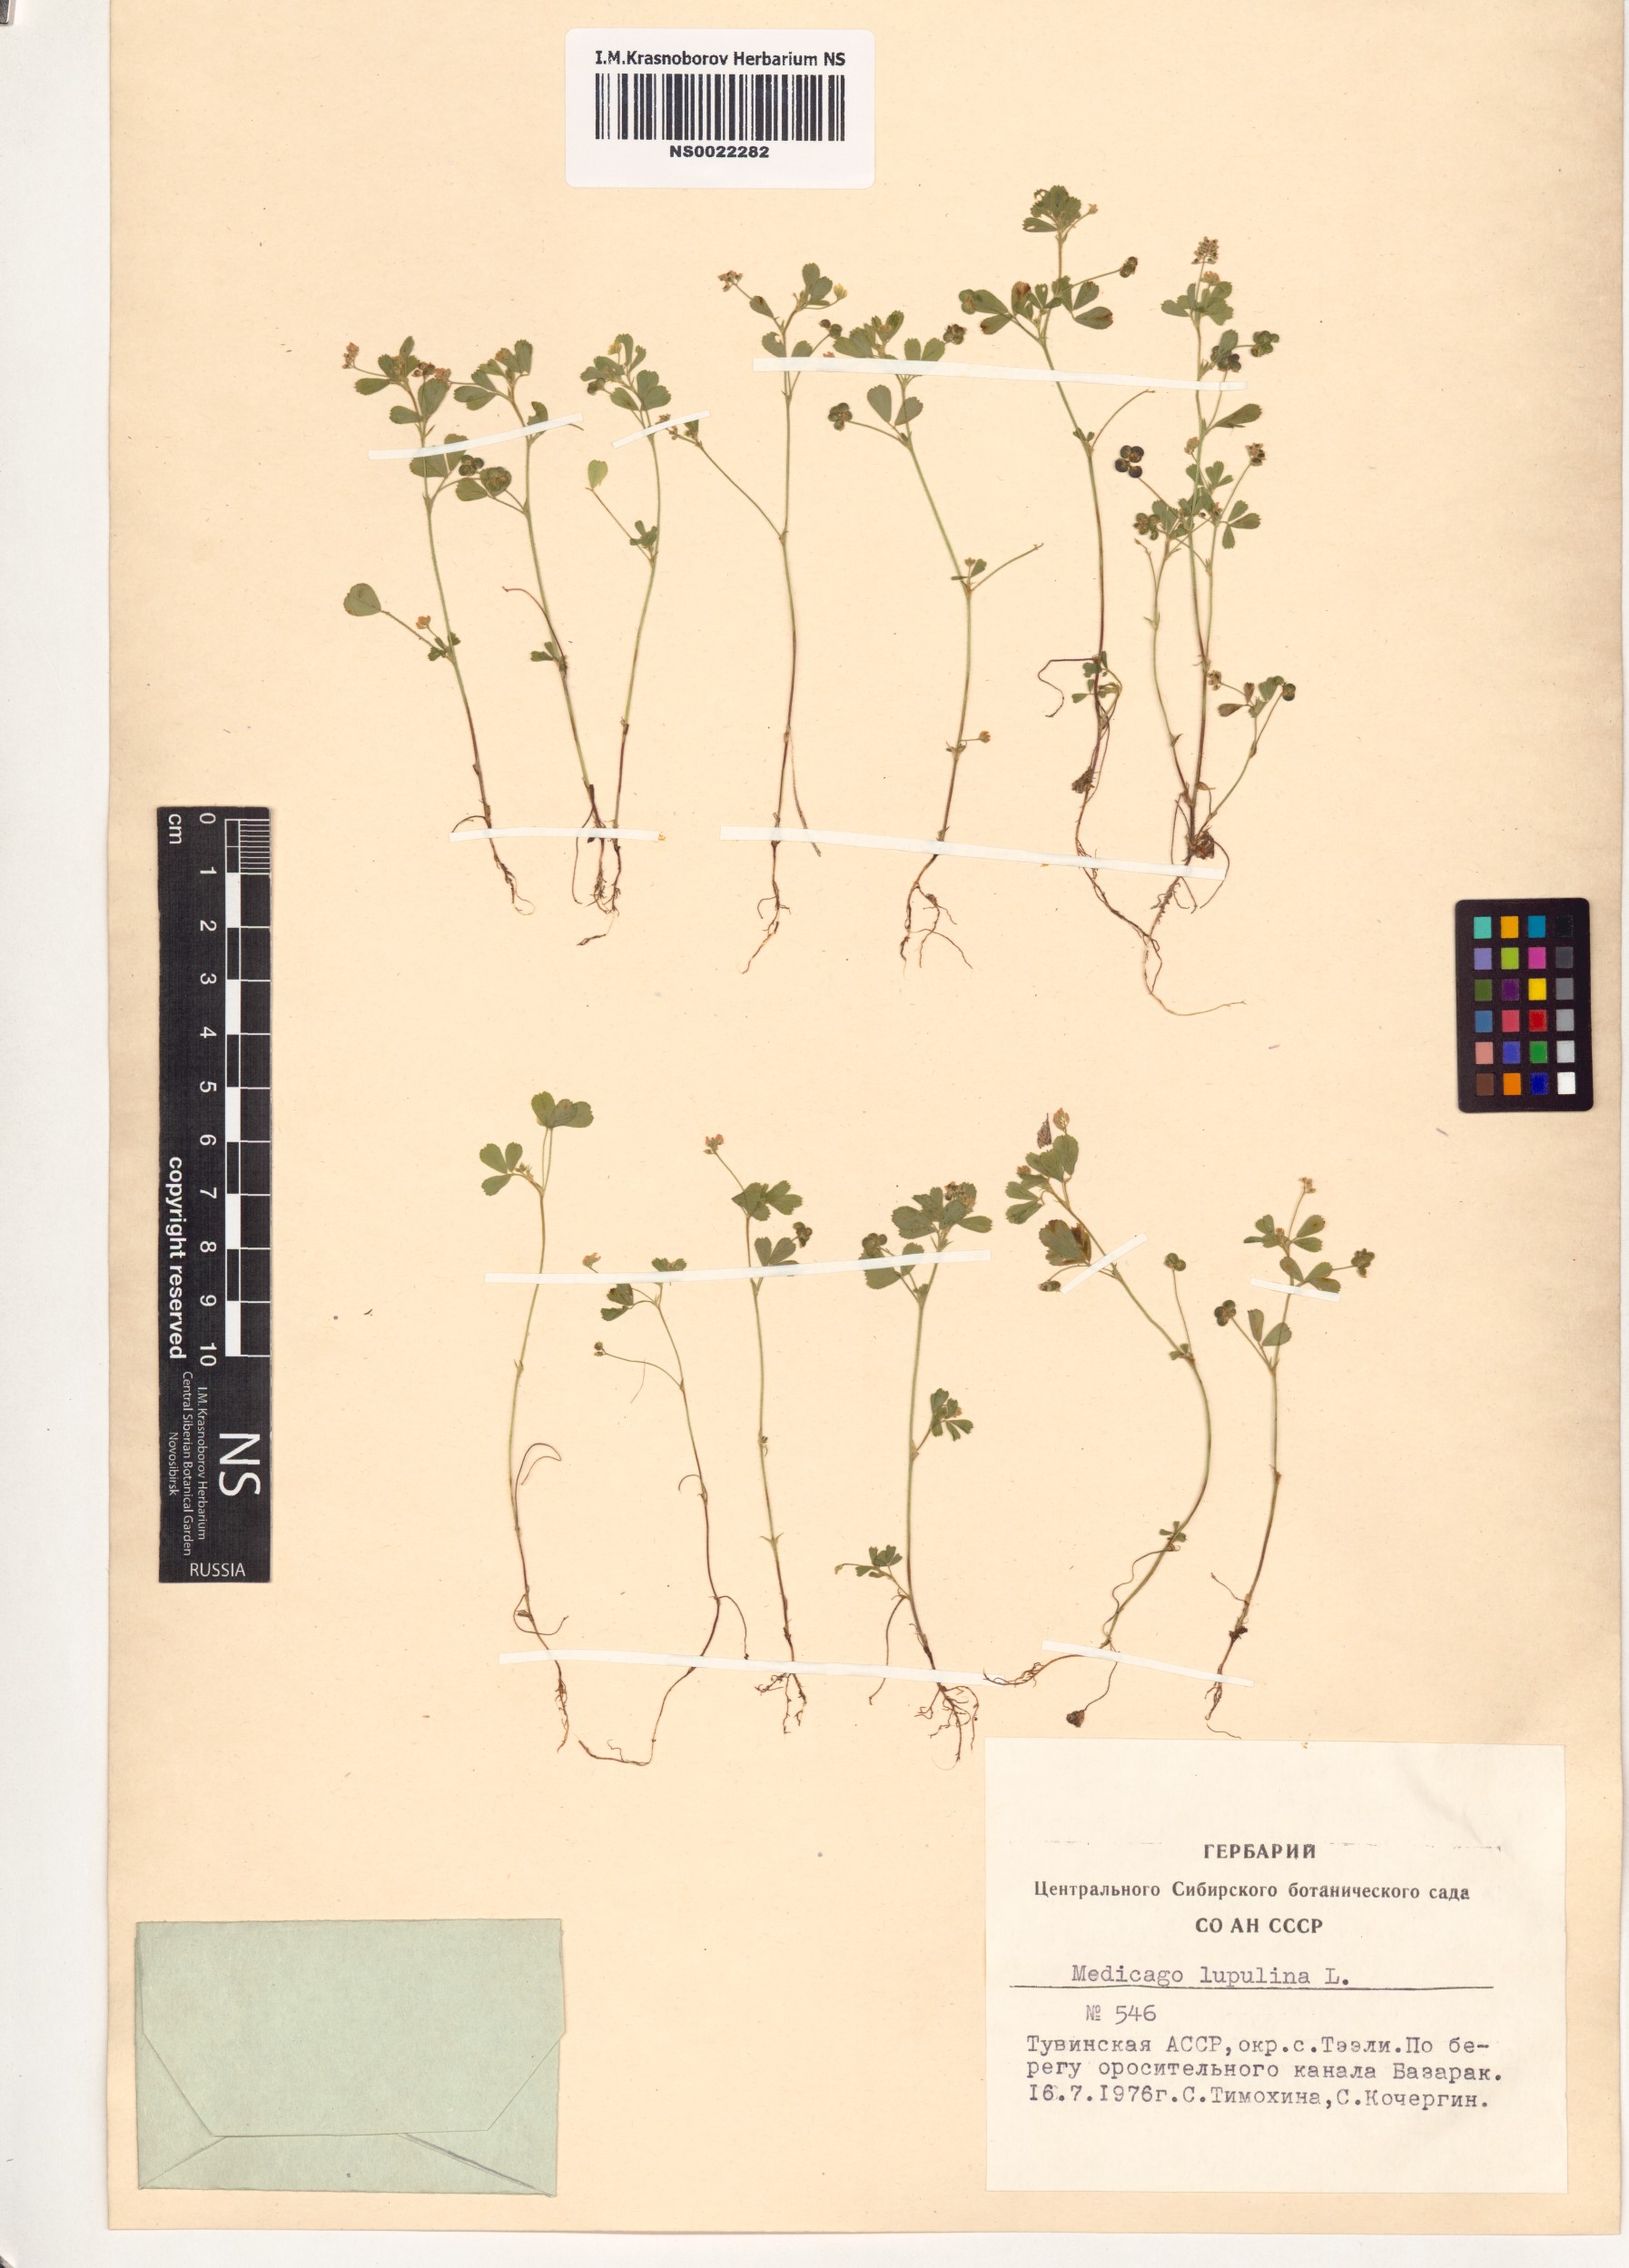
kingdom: Plantae
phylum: Tracheophyta
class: Magnoliopsida
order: Fabales
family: Fabaceae
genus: Medicago
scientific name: Medicago lupulina
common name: Black medick
